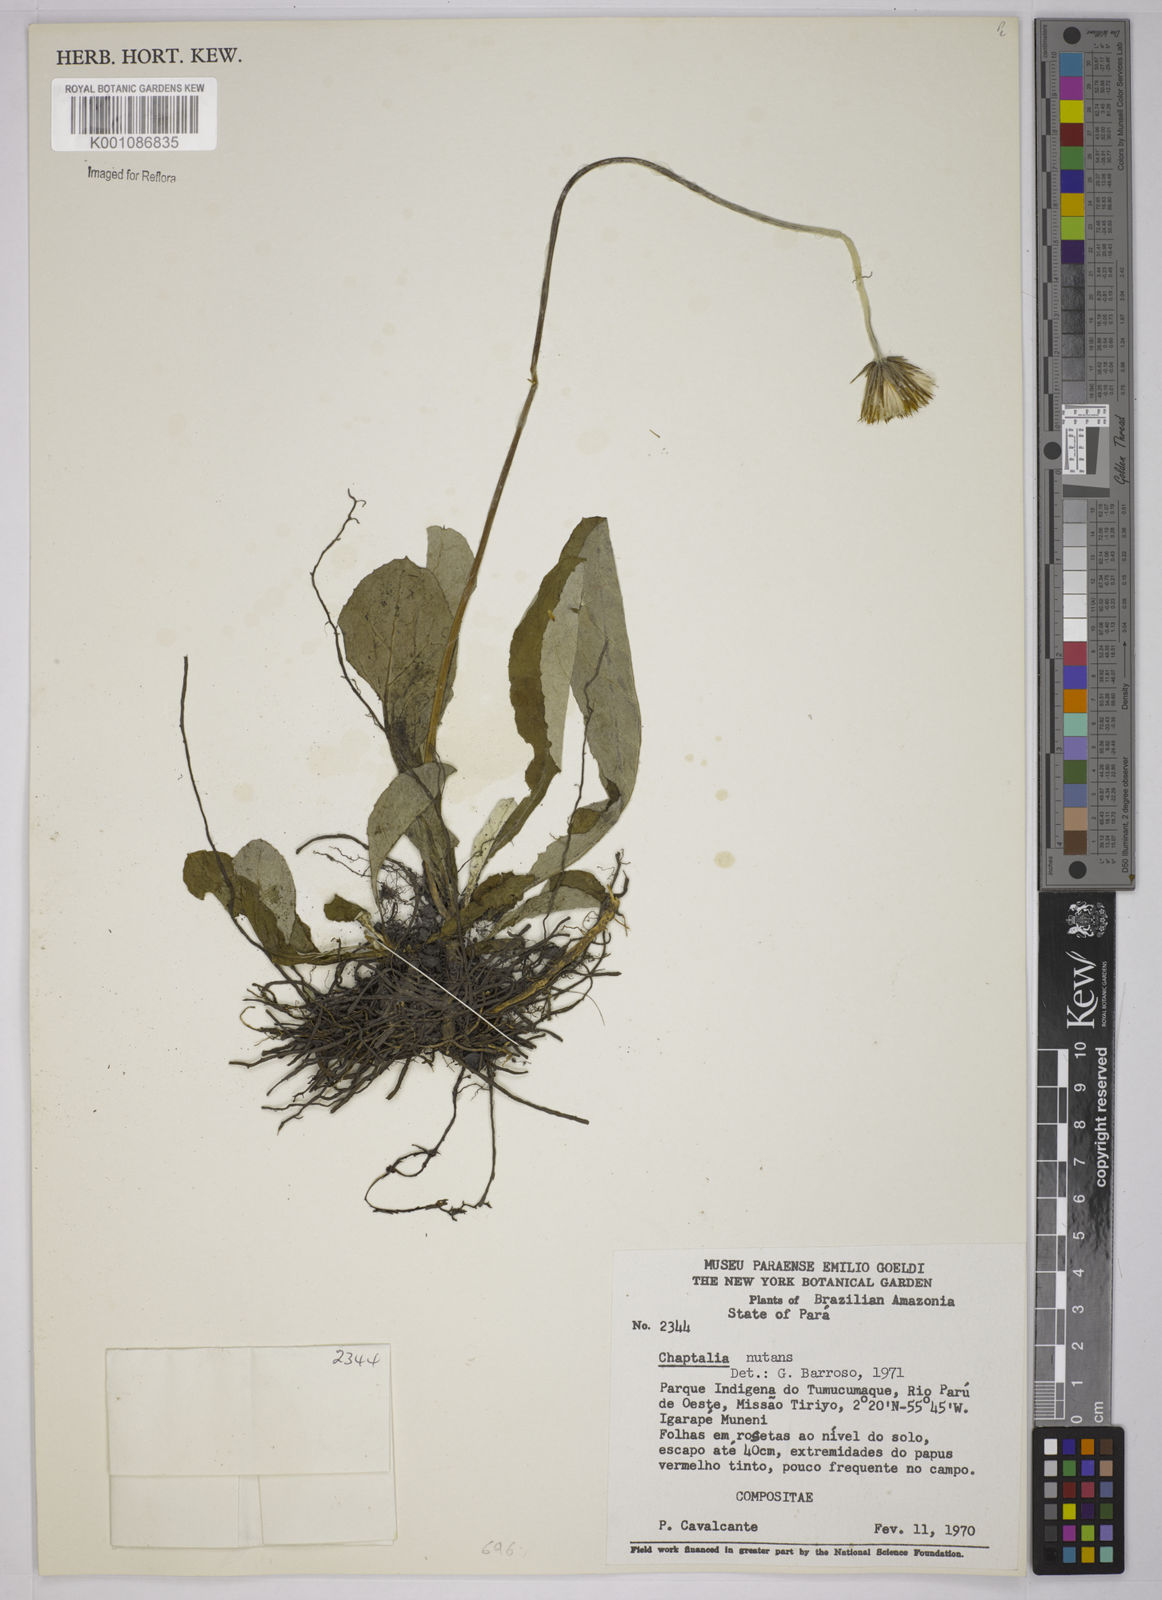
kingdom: Plantae
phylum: Tracheophyta
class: Magnoliopsida
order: Asterales
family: Asteraceae
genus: Chaptalia
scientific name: Chaptalia nutans
